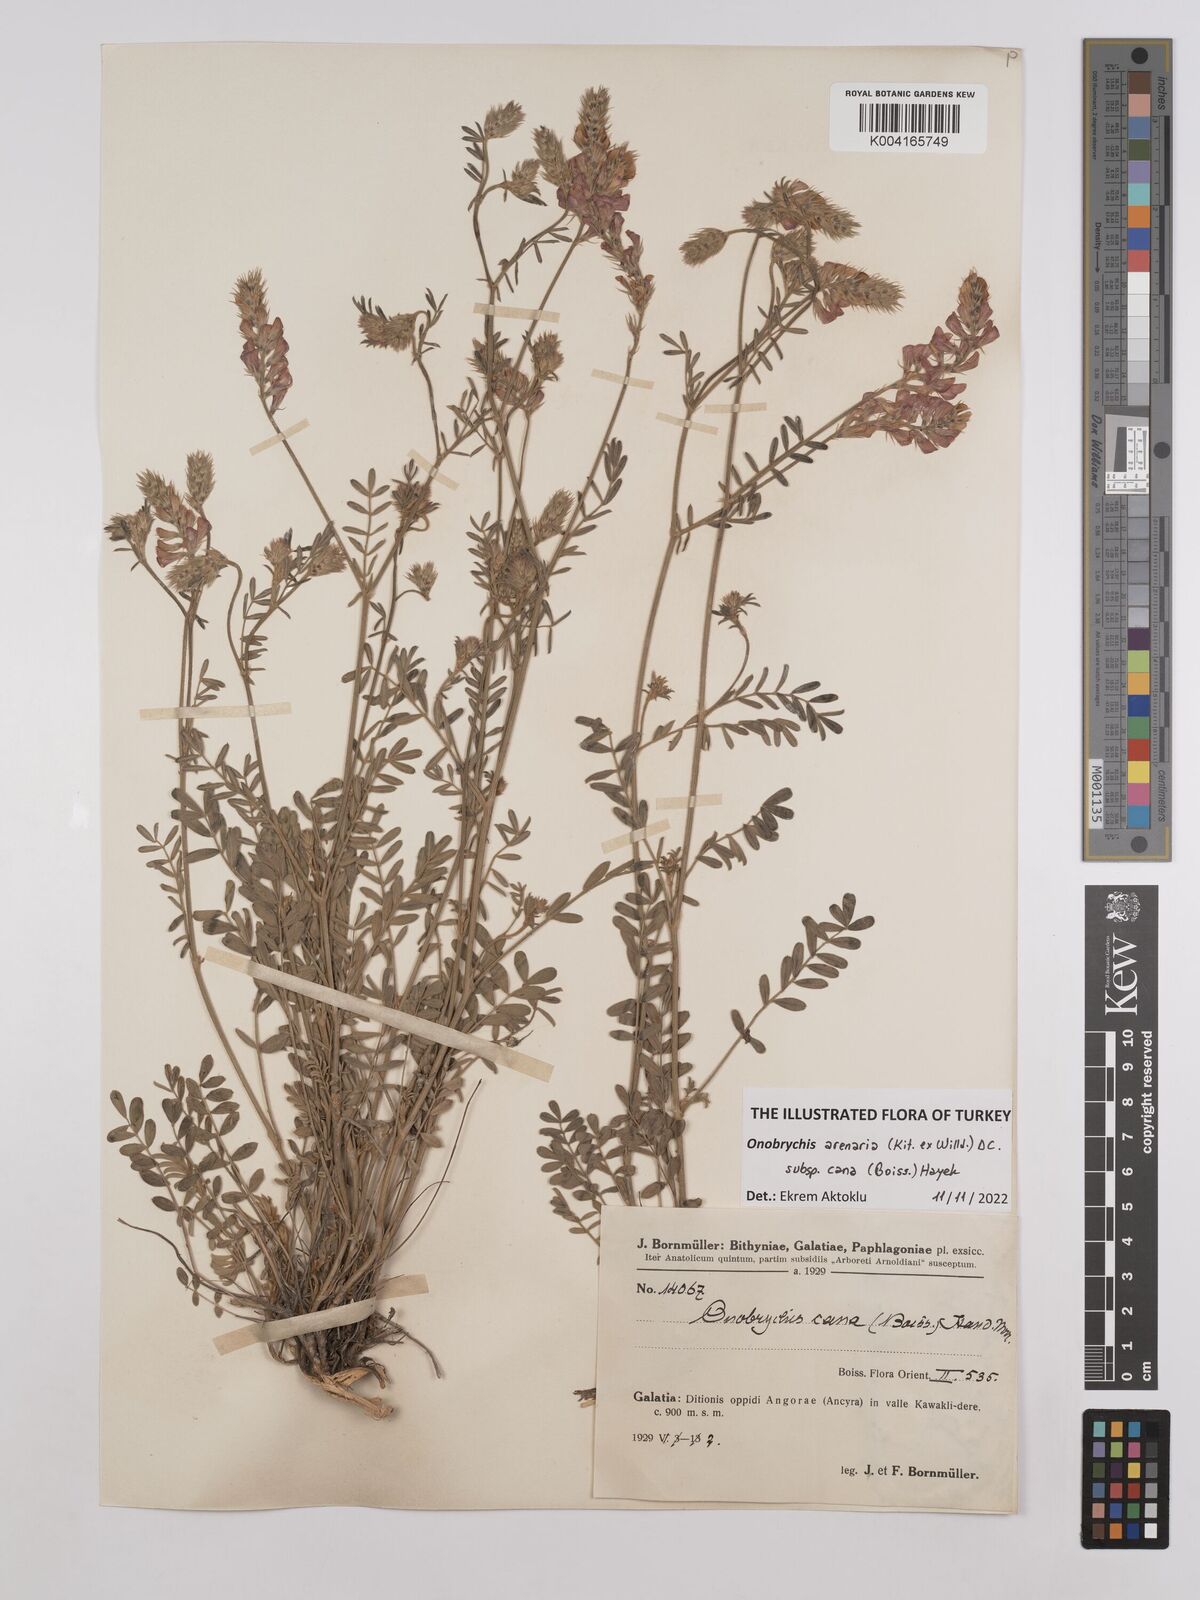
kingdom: Plantae
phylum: Tracheophyta
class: Magnoliopsida
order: Fabales
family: Fabaceae
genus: Onobrychis
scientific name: Onobrychis arenaria
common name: Sand esparcet
